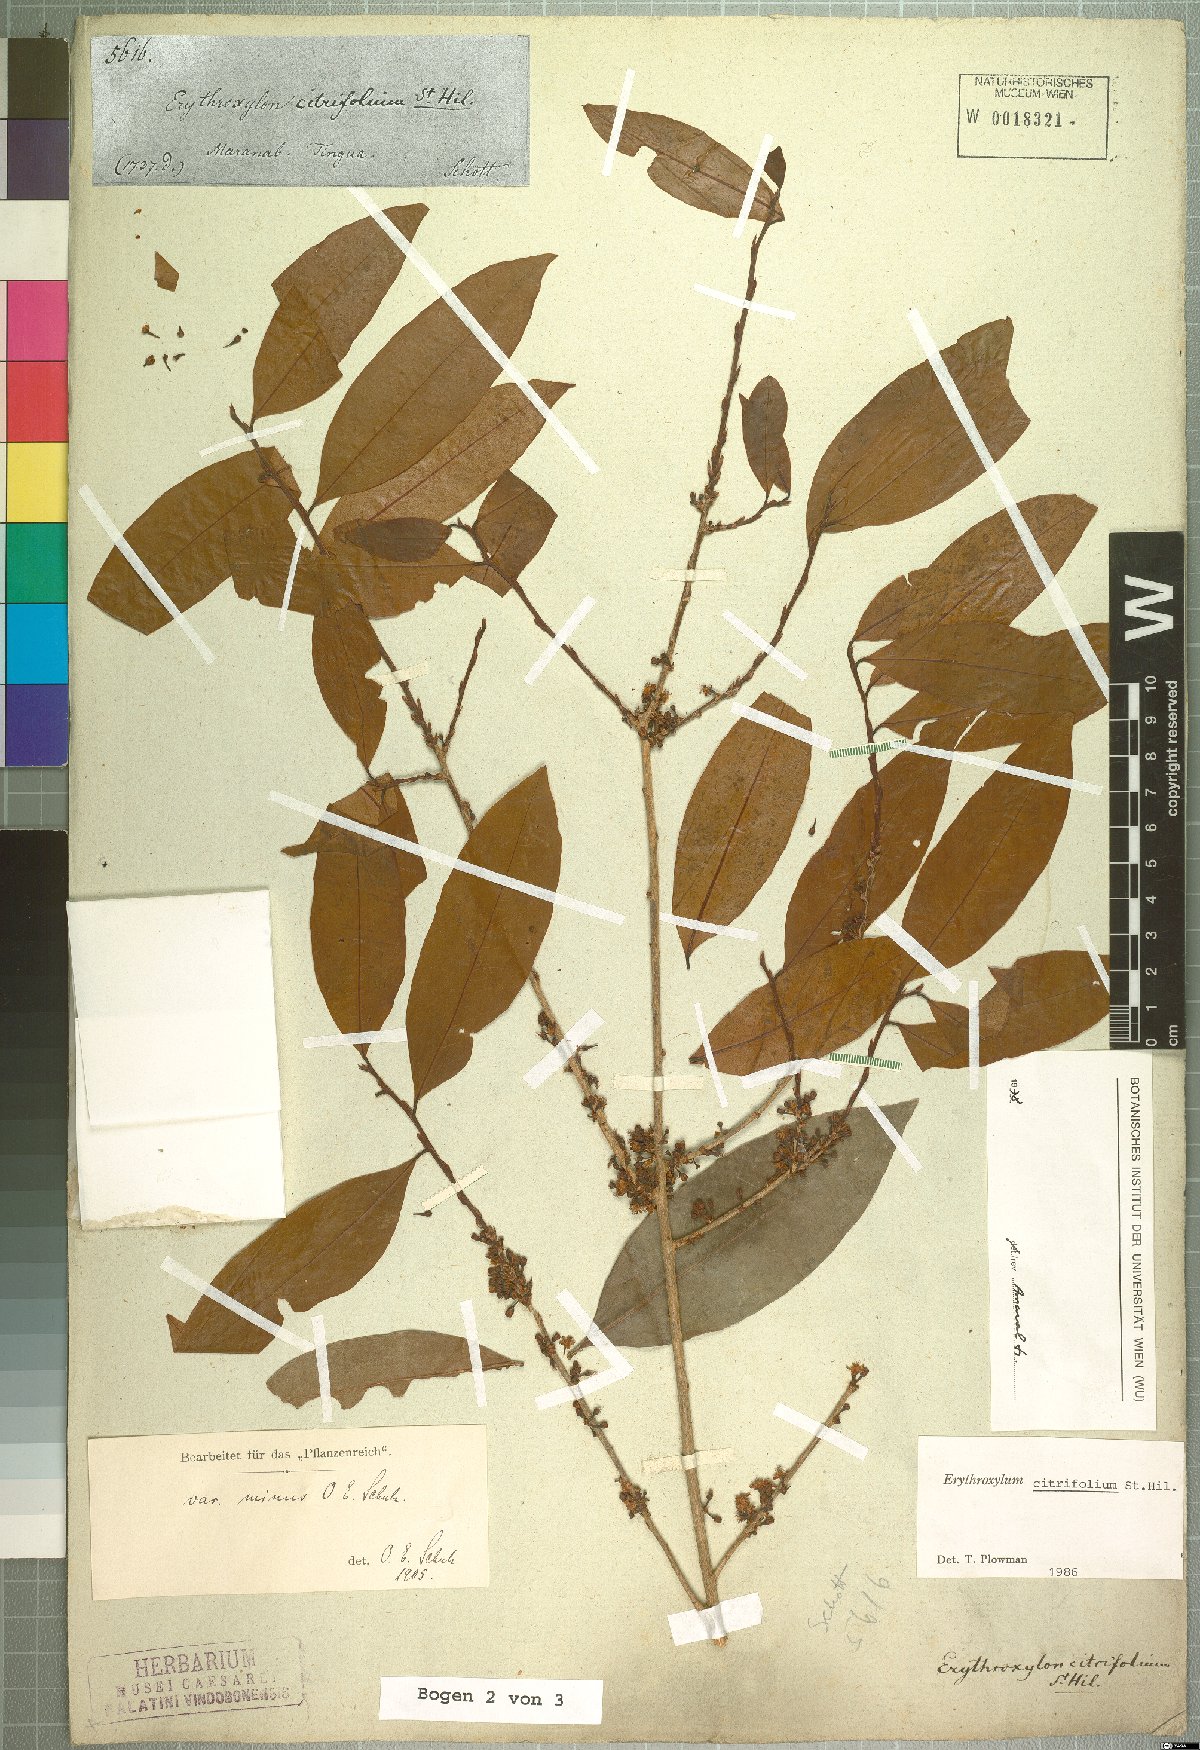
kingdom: Plantae
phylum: Tracheophyta
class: Magnoliopsida
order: Malpighiales
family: Erythroxylaceae
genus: Erythroxylum
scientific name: Erythroxylum citrifolium
